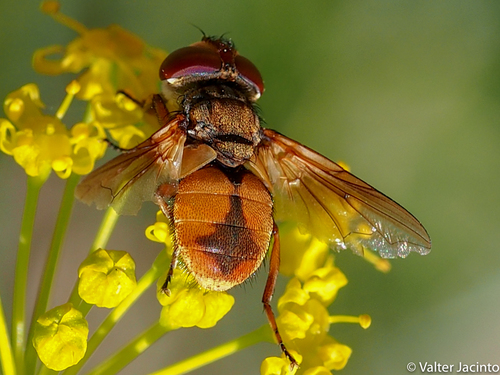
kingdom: Animalia
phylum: Arthropoda
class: Insecta
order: Diptera
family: Tachinidae
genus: Ectophasia
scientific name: Ectophasia leucoptera
